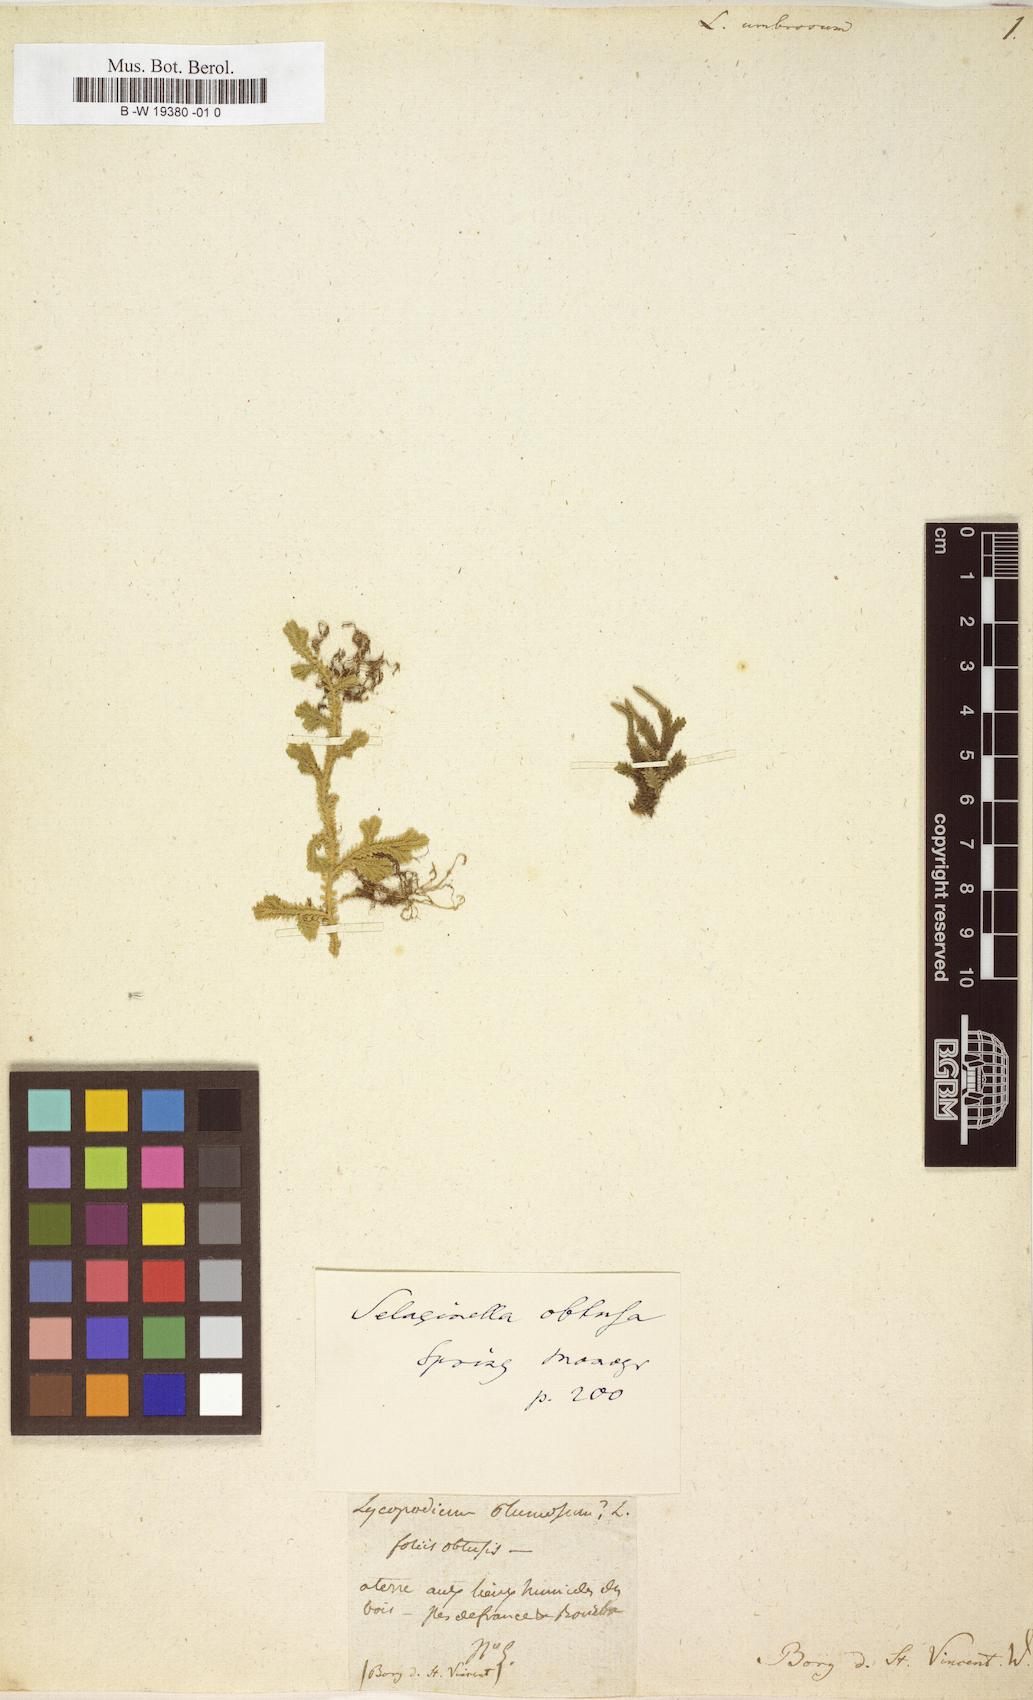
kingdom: Plantae
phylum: Tracheophyta
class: Lycopodiopsida
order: Selaginellales
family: Selaginellaceae
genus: Selaginella
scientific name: Selaginella
